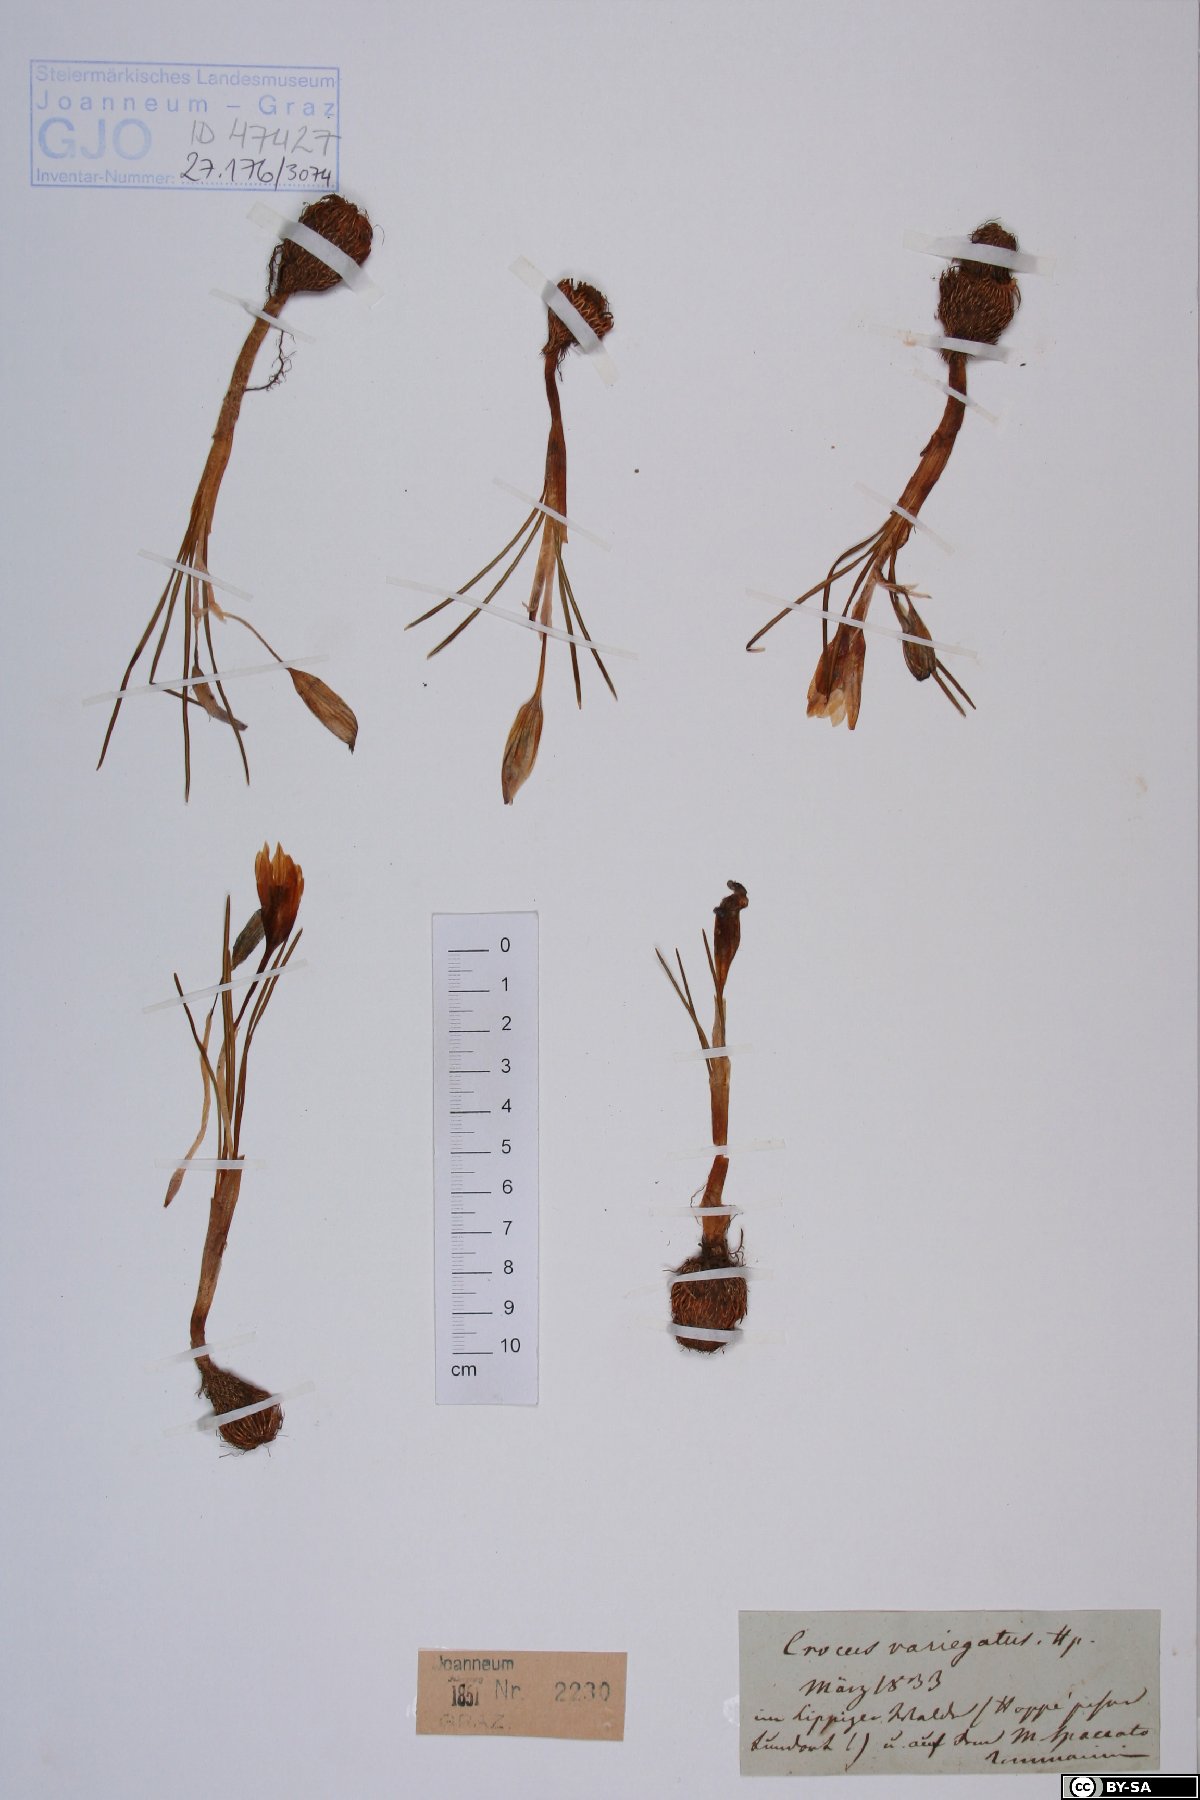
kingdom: Plantae
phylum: Tracheophyta
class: Liliopsida
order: Asparagales
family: Iridaceae
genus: Crocus
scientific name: Crocus variegatus
